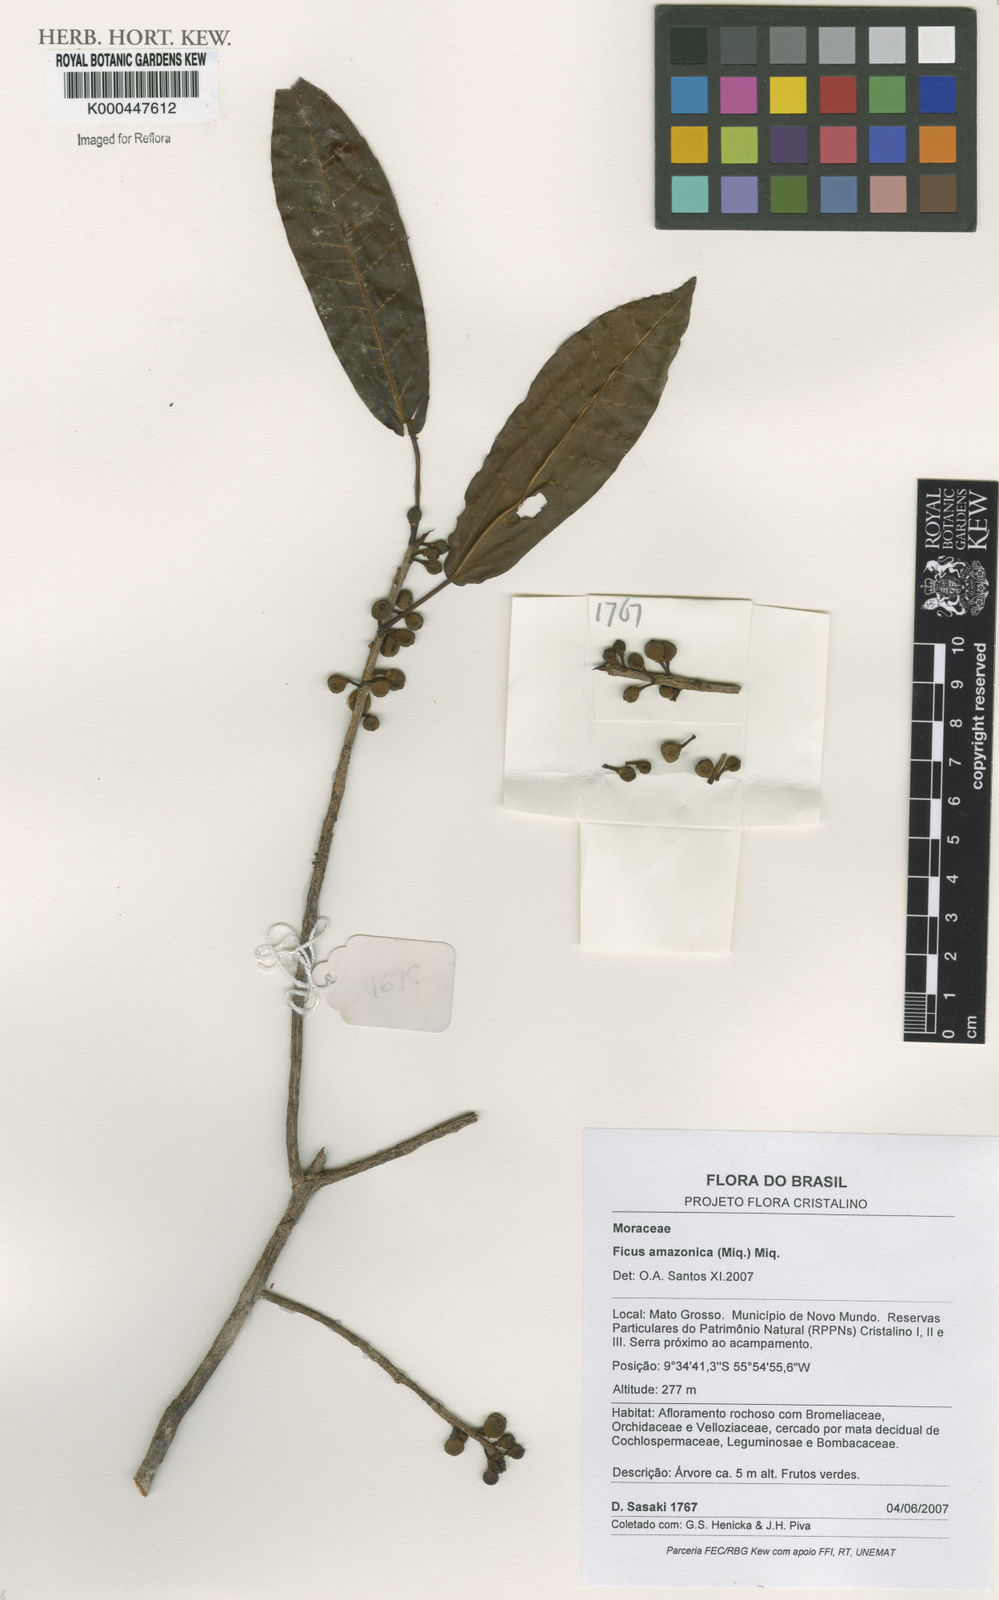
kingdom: Plantae
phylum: Tracheophyta
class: Magnoliopsida
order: Rosales
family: Moraceae
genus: Ficus
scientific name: Ficus amazonica
